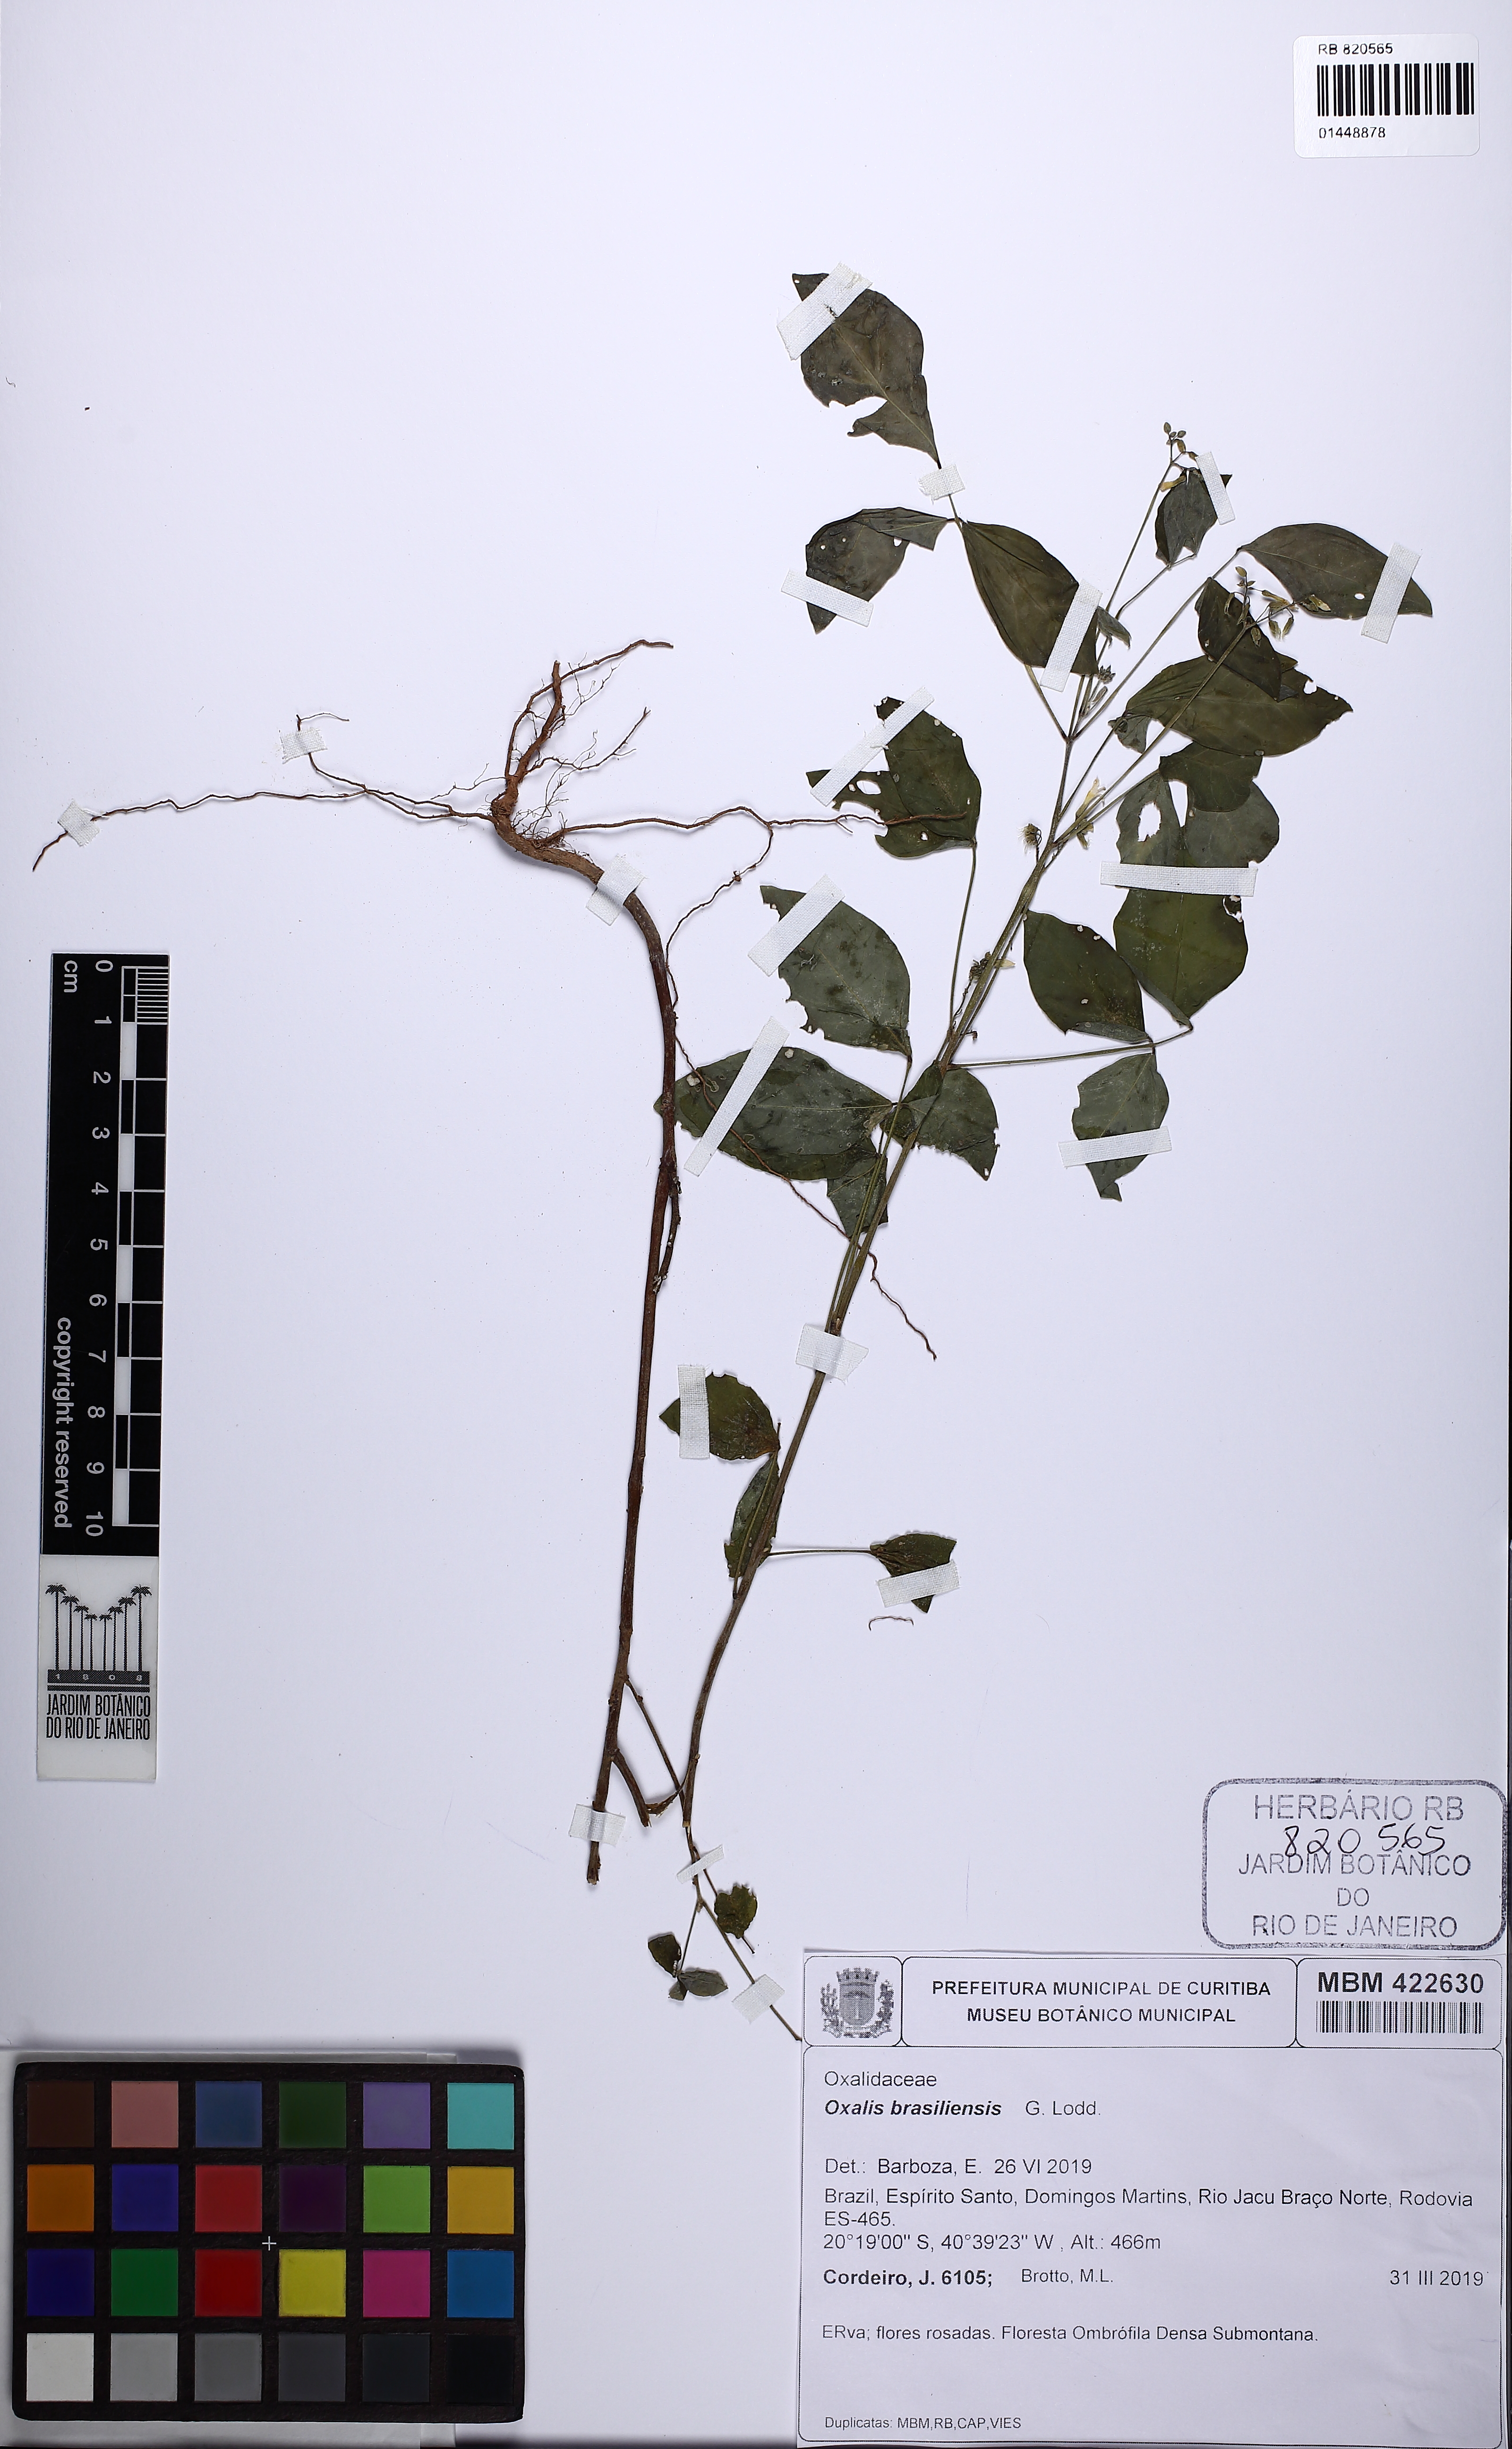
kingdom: Plantae
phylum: Tracheophyta
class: Magnoliopsida
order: Oxalidales
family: Oxalidaceae
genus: Oxalis
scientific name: Oxalis brasiliensis
